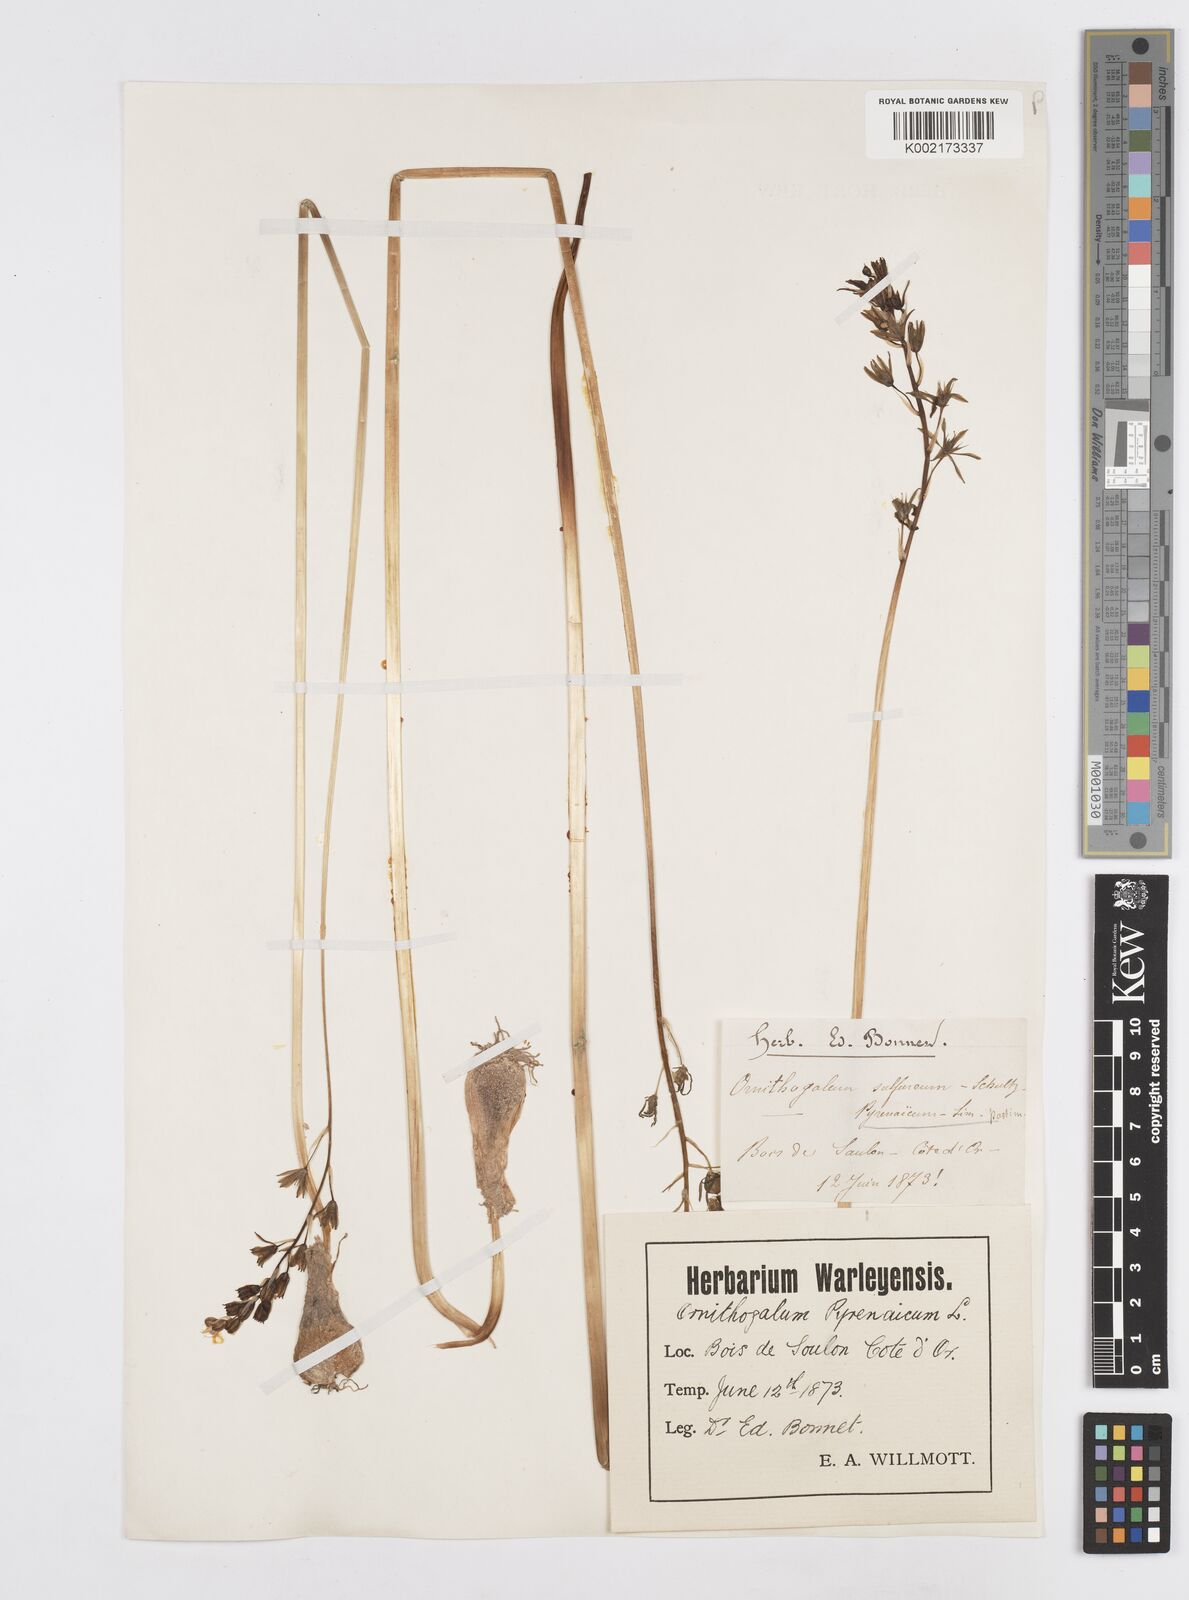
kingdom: Plantae
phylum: Tracheophyta
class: Liliopsida
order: Asparagales
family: Asparagaceae
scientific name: Asparagaceae
